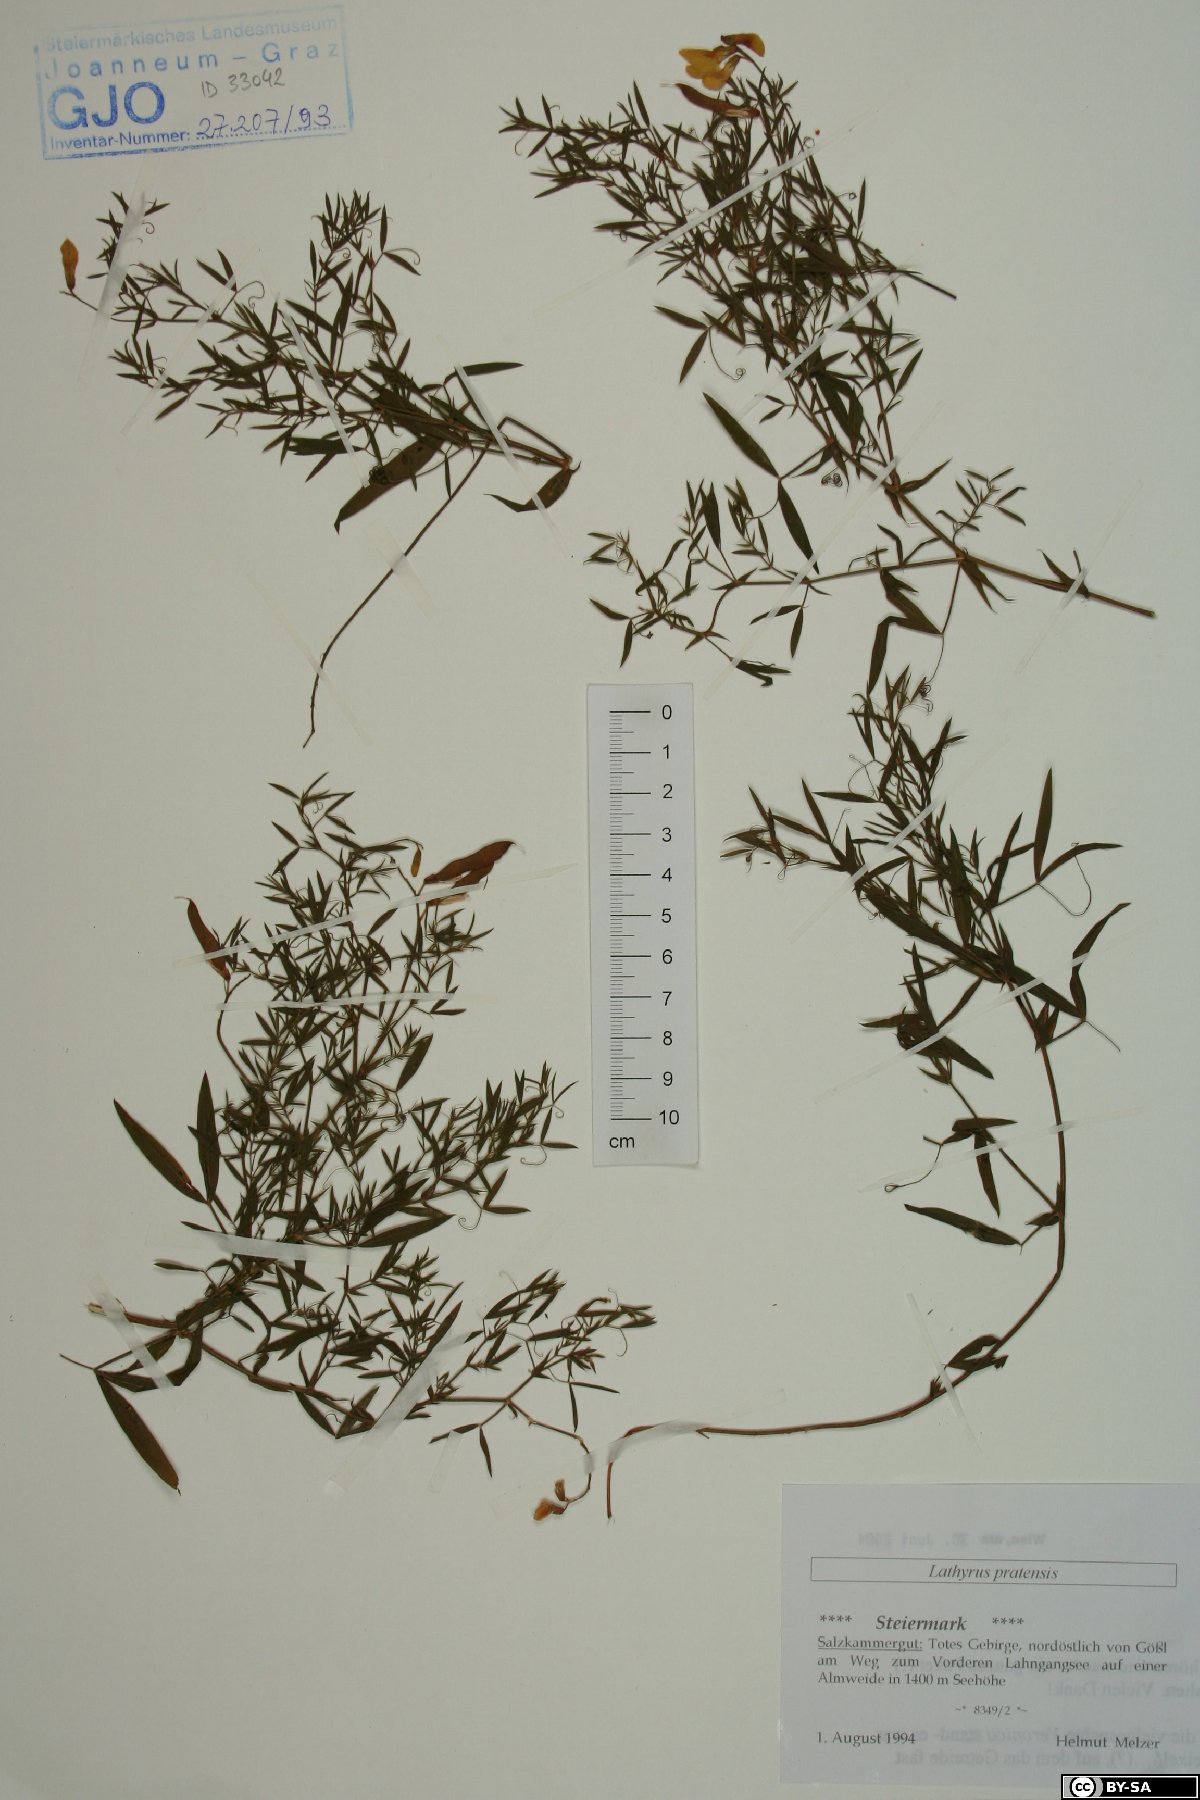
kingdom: Plantae
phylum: Tracheophyta
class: Magnoliopsida
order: Fabales
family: Fabaceae
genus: Lathyrus
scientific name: Lathyrus pratensis
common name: Meadow vetchling
